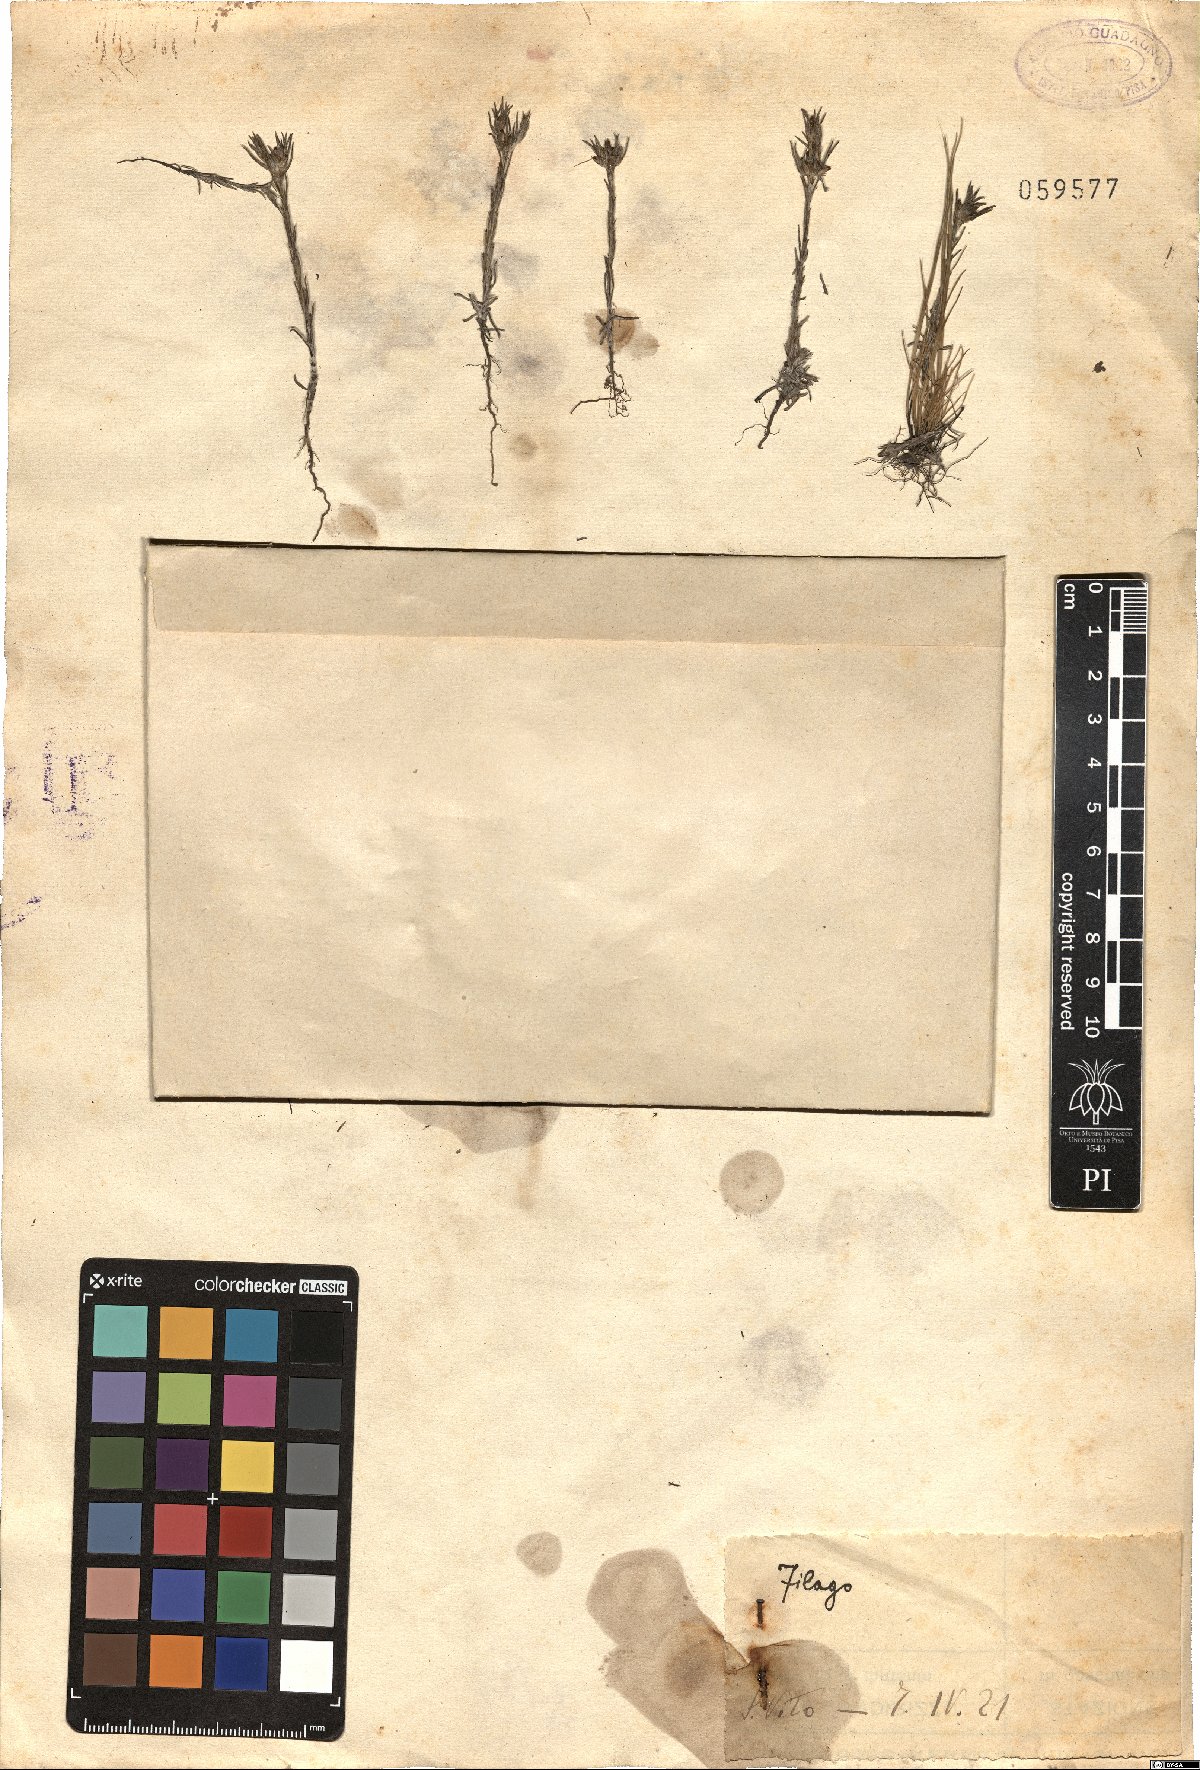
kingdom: Plantae
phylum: Tracheophyta
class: Magnoliopsida
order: Asterales
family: Asteraceae
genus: Filago
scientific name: Filago
